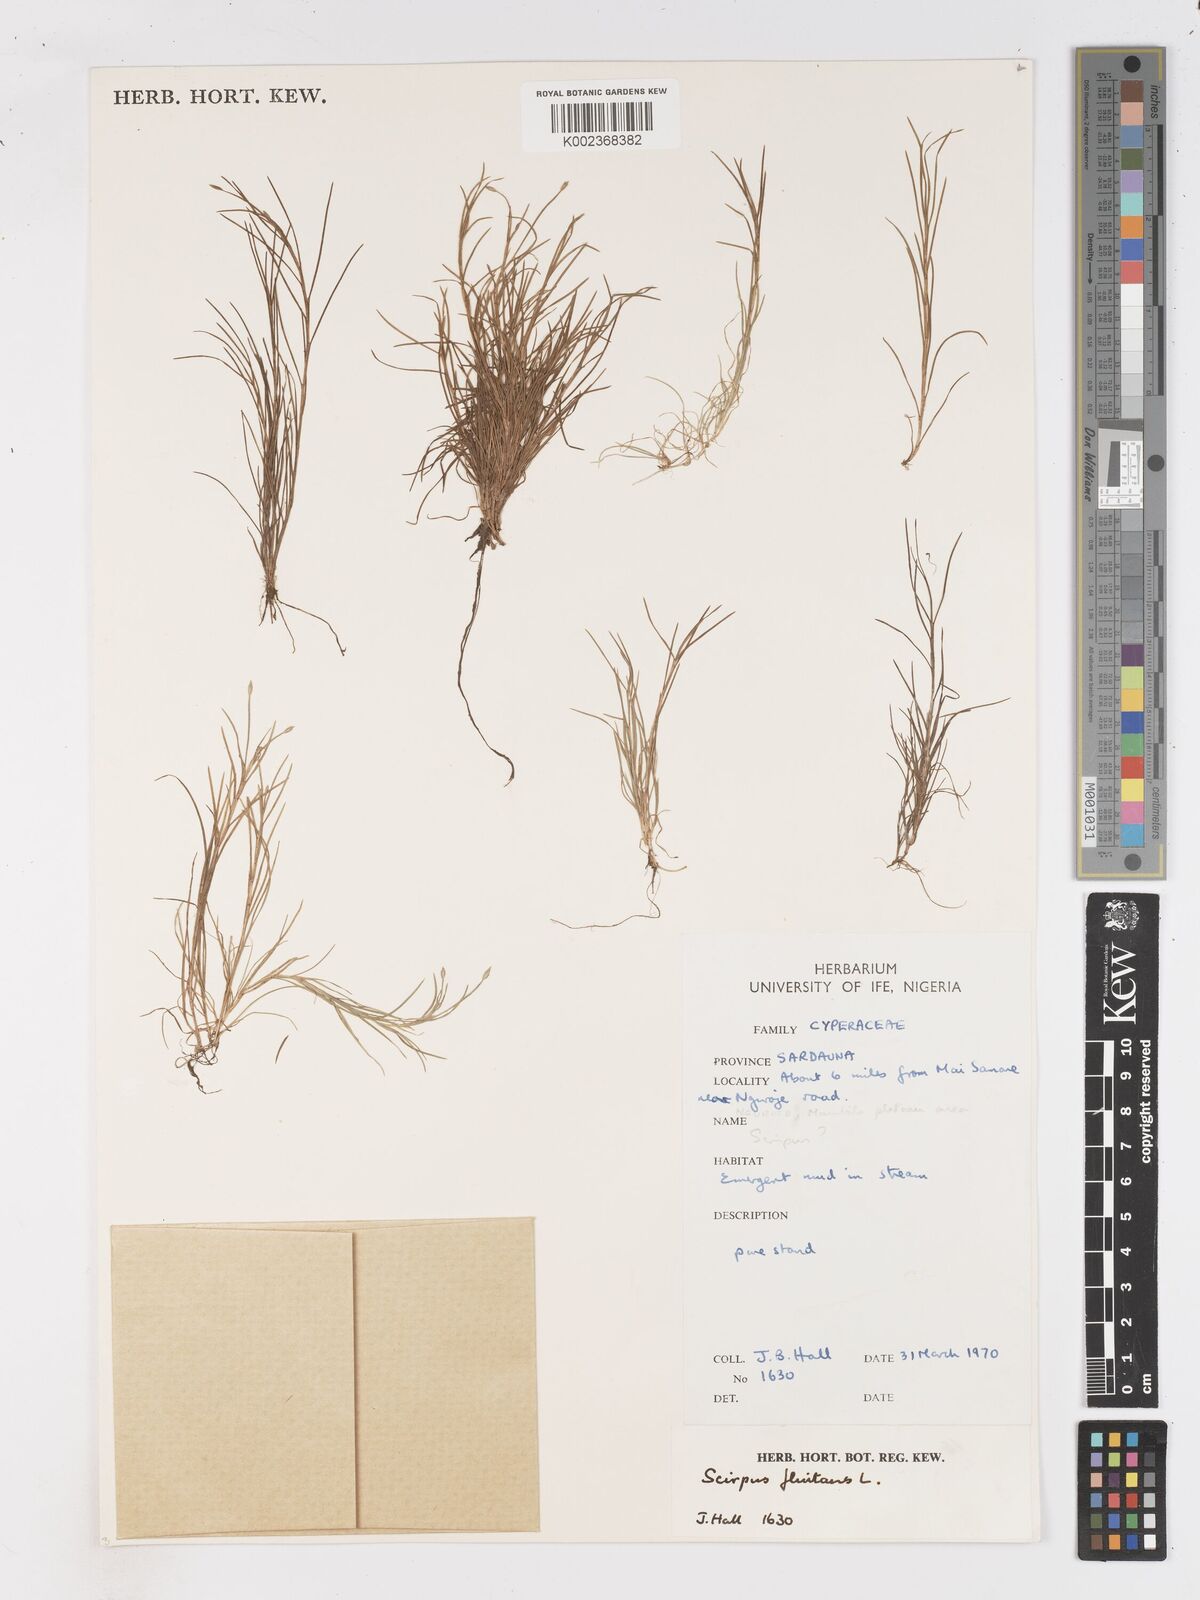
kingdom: Plantae
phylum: Tracheophyta
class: Liliopsida
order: Poales
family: Cyperaceae
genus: Isolepis
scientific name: Isolepis fluitans
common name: Floating club-rush
